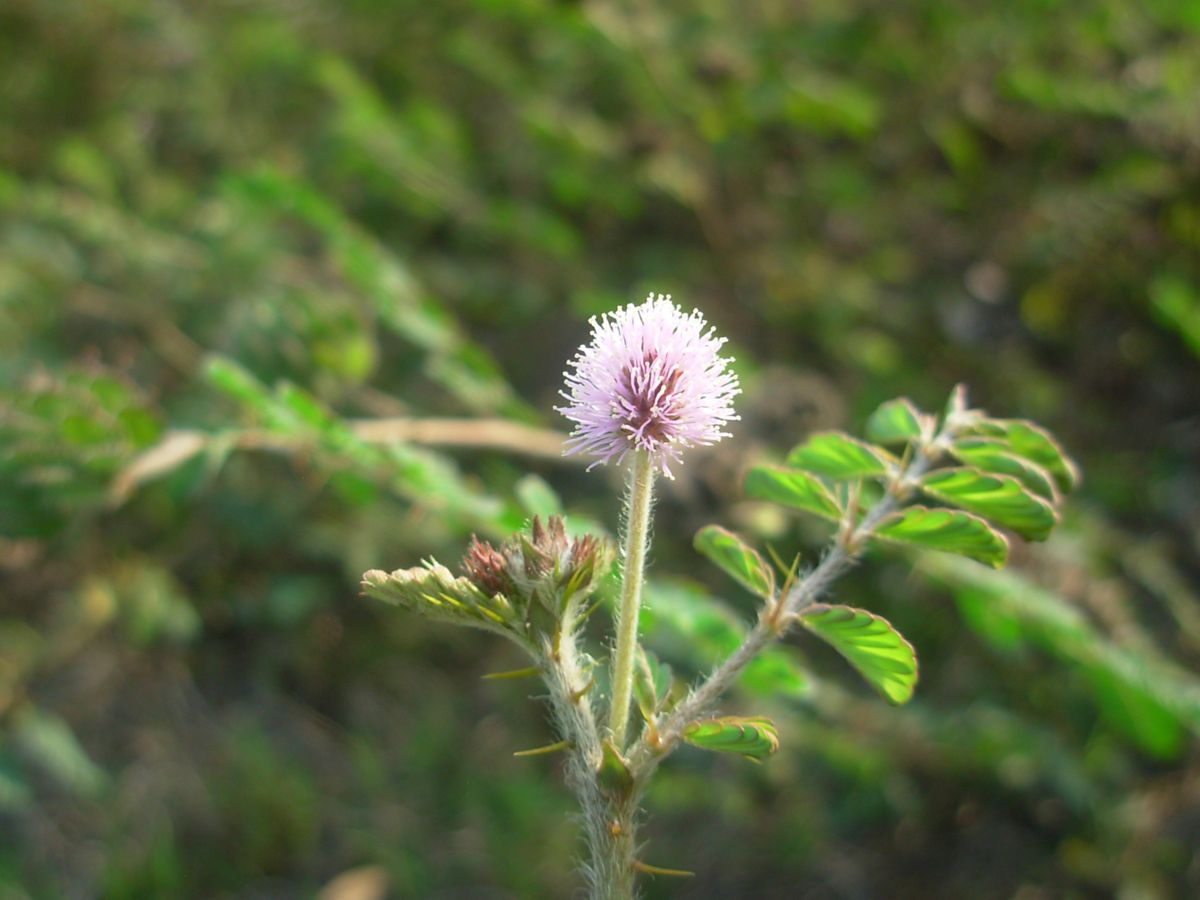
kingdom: Plantae
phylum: Tracheophyta
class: Magnoliopsida
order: Fabales
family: Fabaceae
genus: Mimosa
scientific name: Mimosa dormiens
